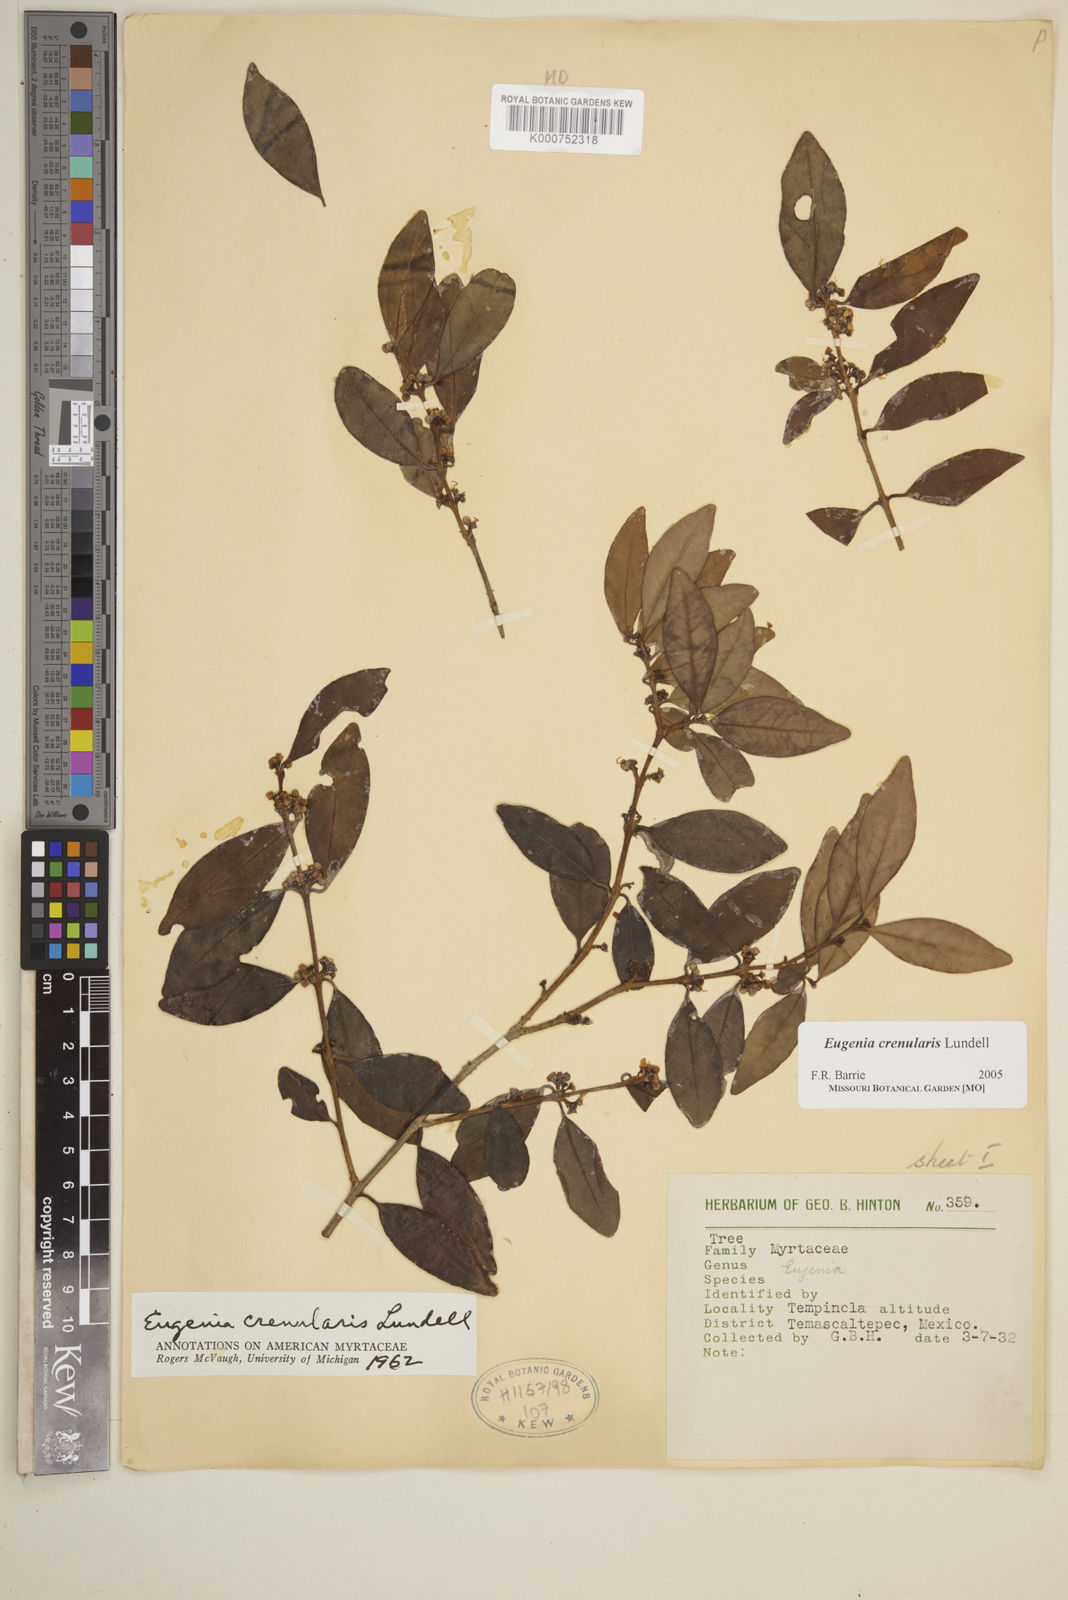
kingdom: Plantae
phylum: Tracheophyta
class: Magnoliopsida
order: Myrtales
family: Myrtaceae
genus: Eugenia
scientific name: Eugenia crenularis
